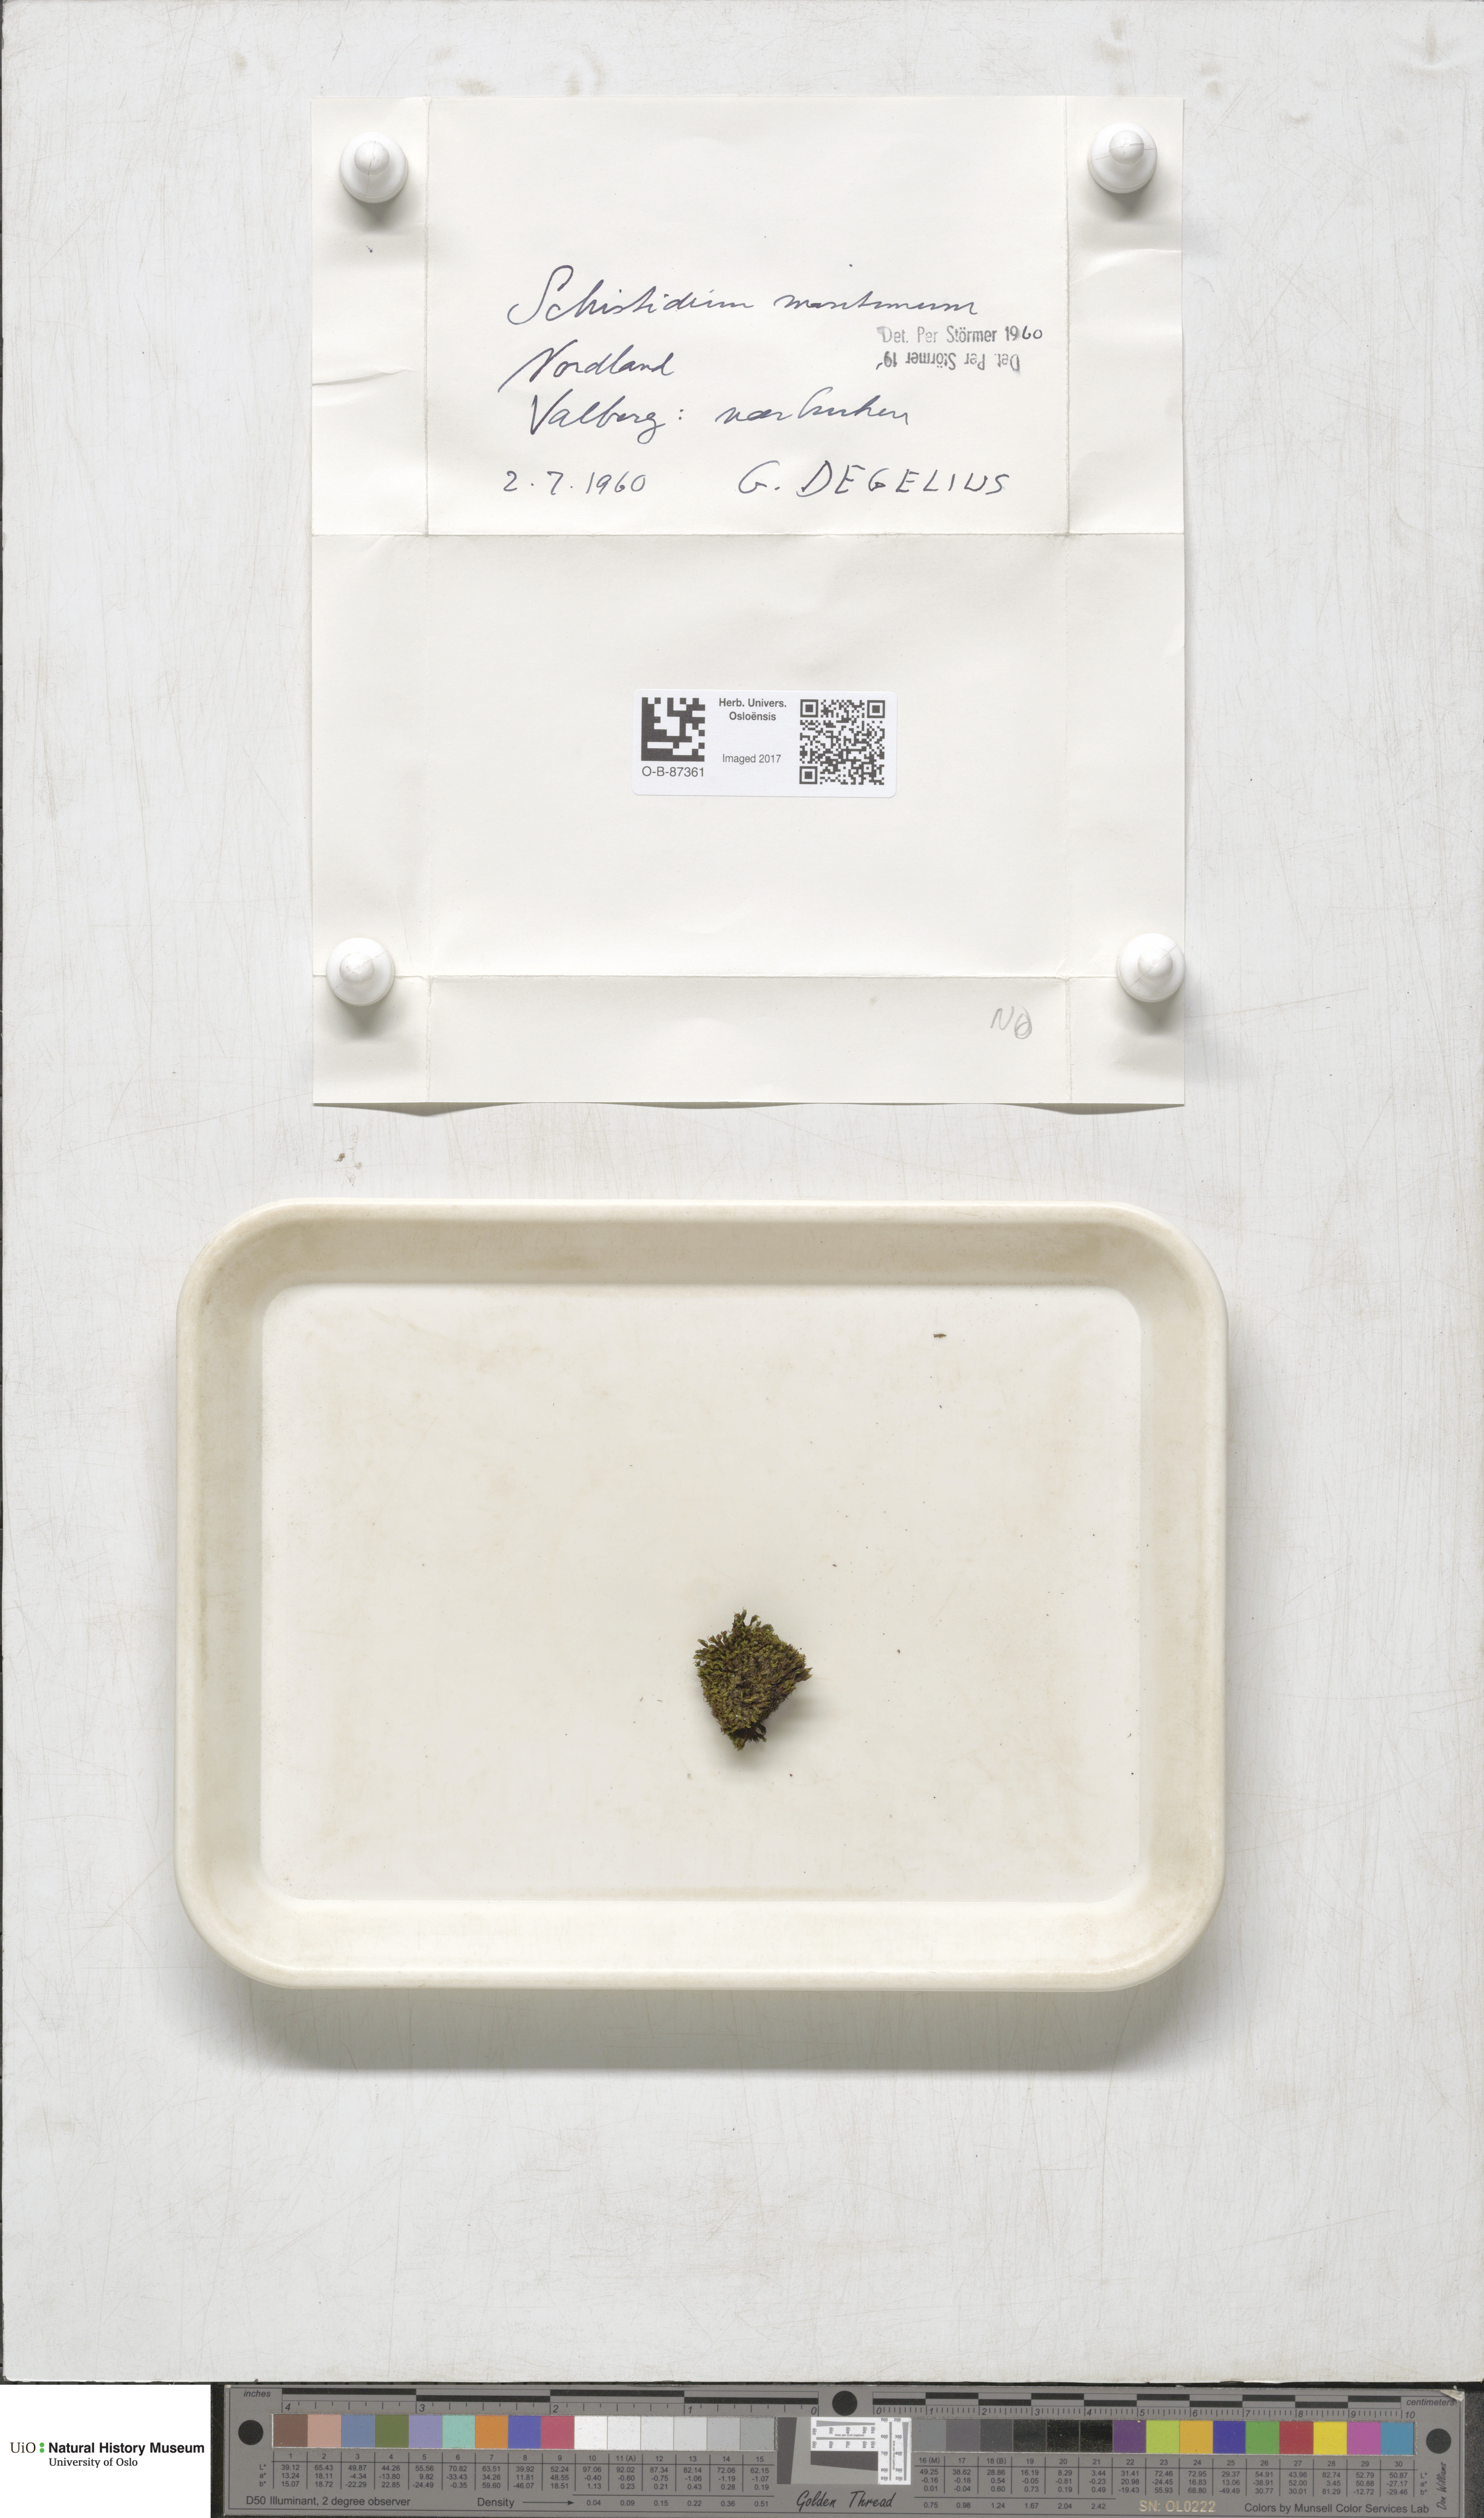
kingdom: Plantae
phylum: Bryophyta
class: Bryopsida
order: Grimmiales
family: Grimmiaceae
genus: Grimmia
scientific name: Grimmia montana
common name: Sun grimmia
